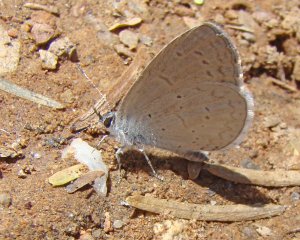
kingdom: Animalia
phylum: Arthropoda
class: Insecta
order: Lepidoptera
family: Lycaenidae
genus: Celastrina
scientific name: Celastrina ladon
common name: Spring Azure
